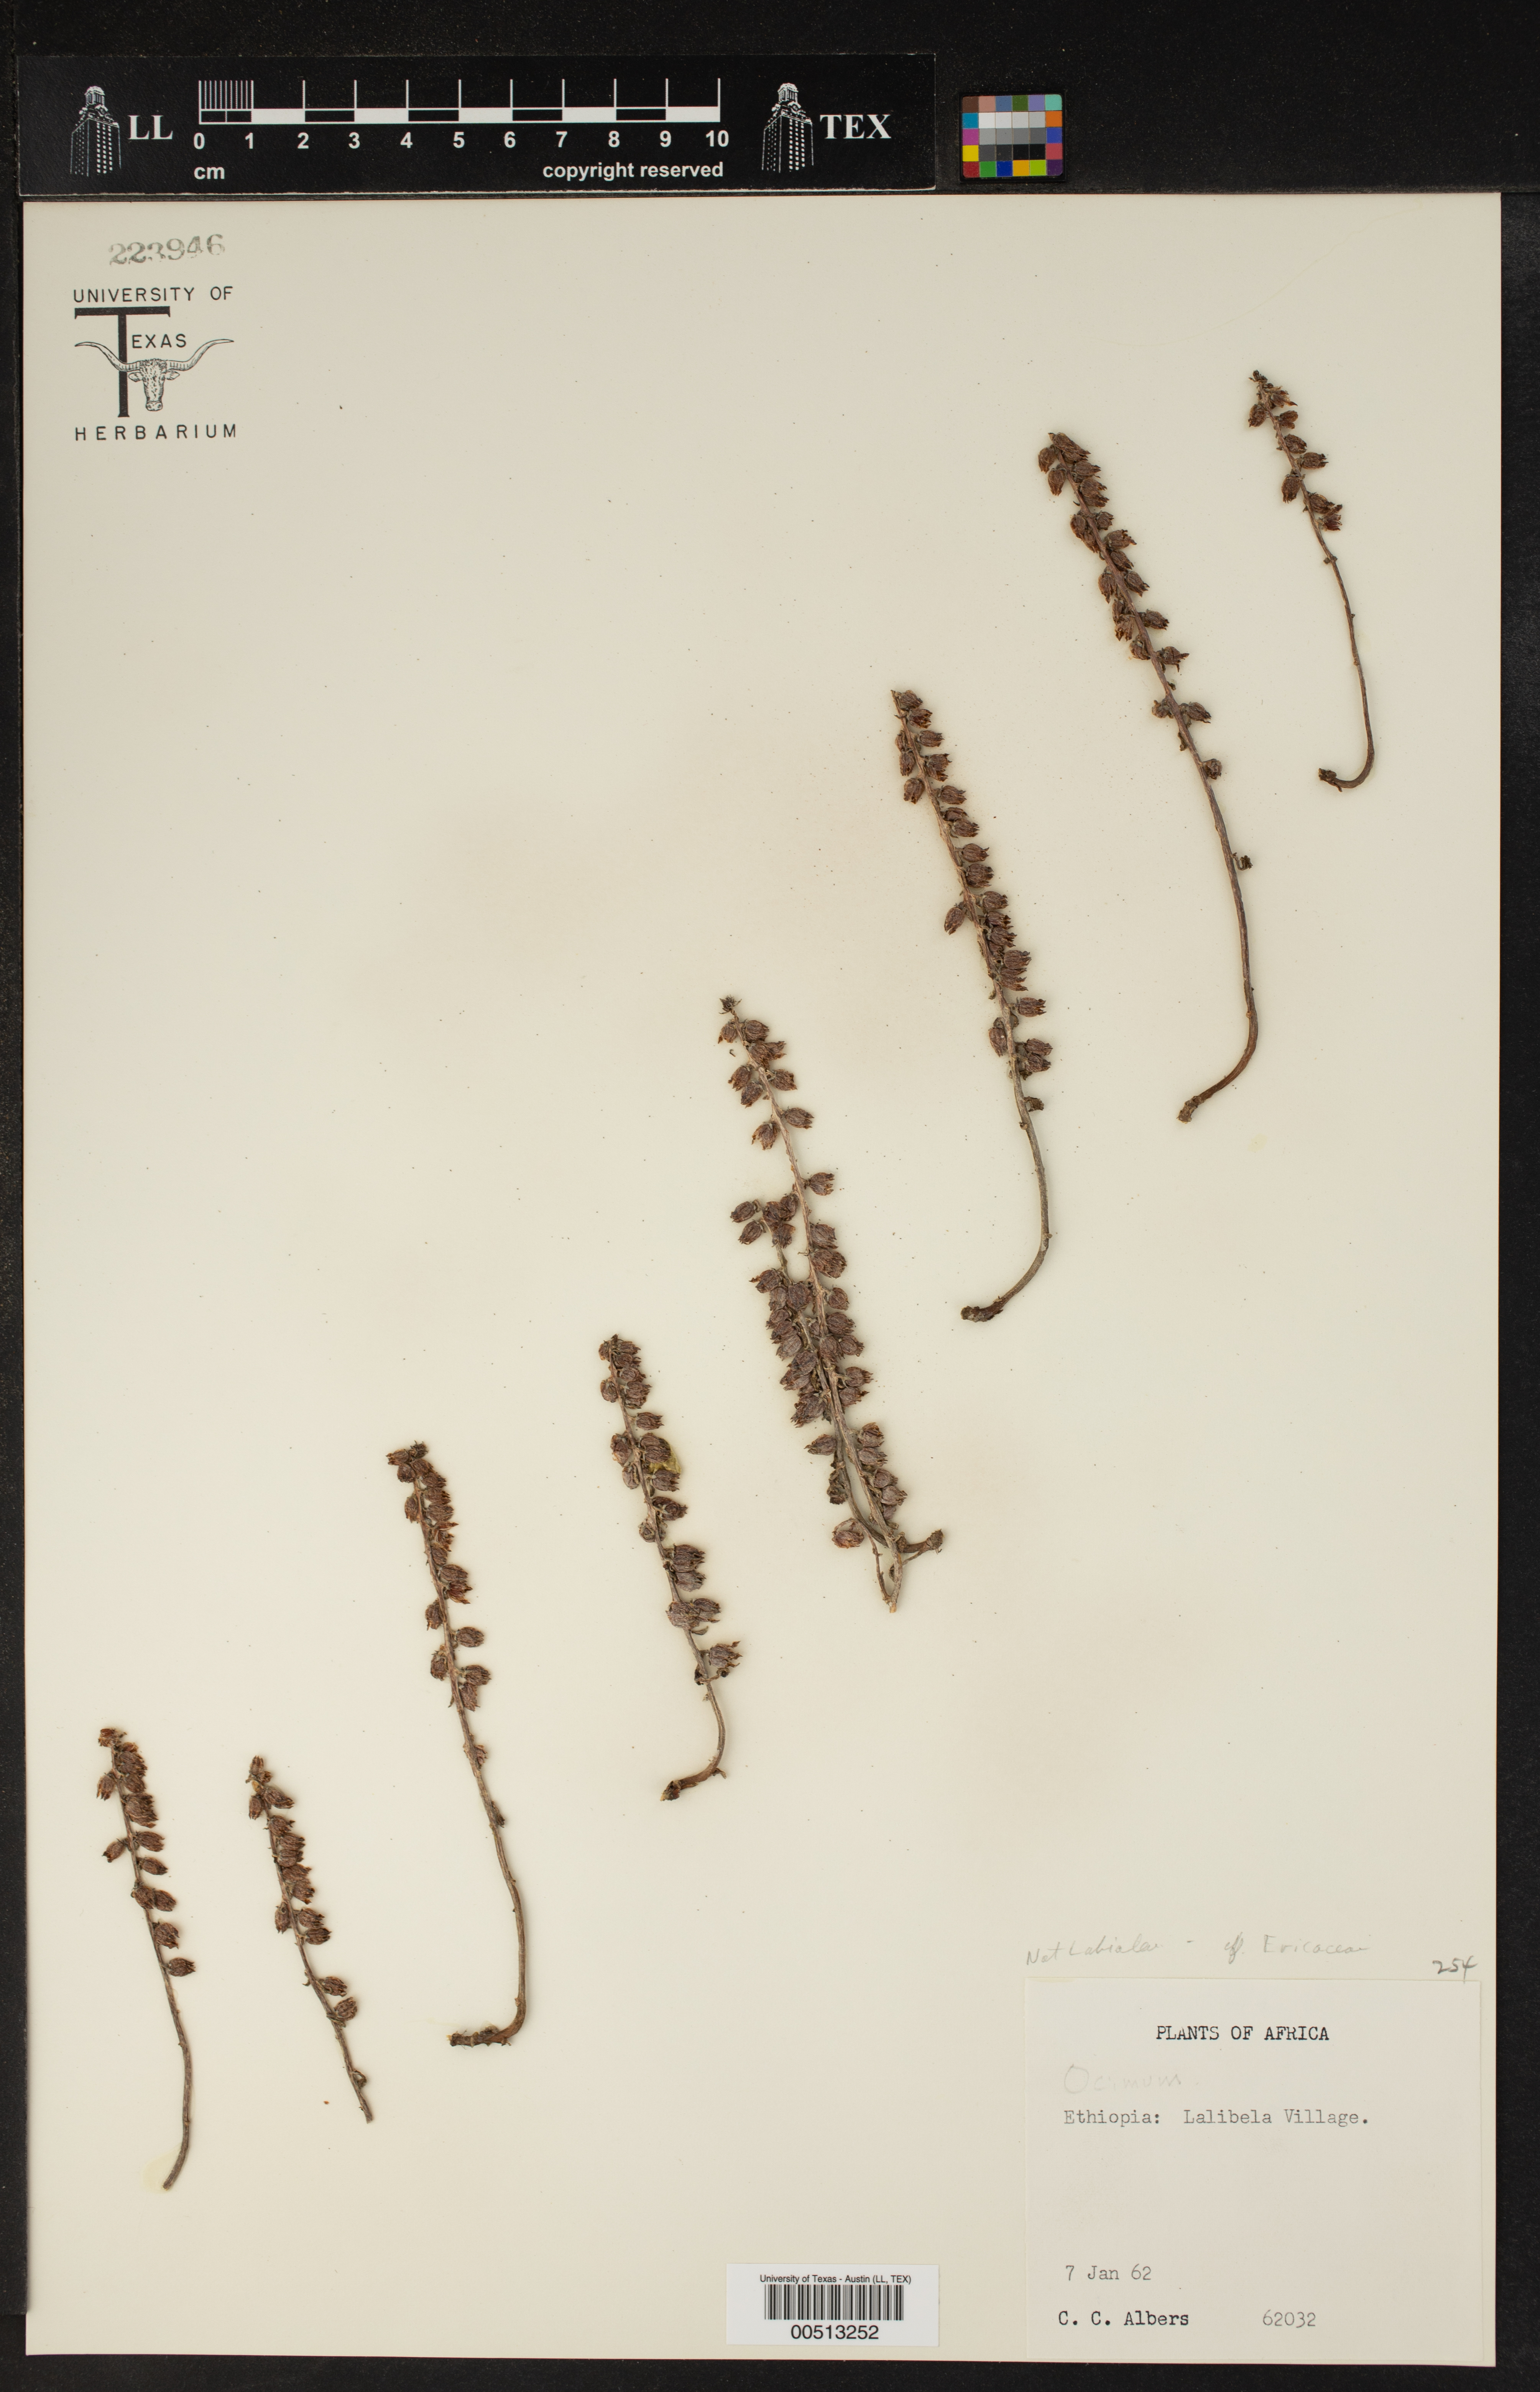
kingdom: Plantae
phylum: Tracheophyta
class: Magnoliopsida
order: Ericales
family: Ericaceae
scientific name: Ericaceae
